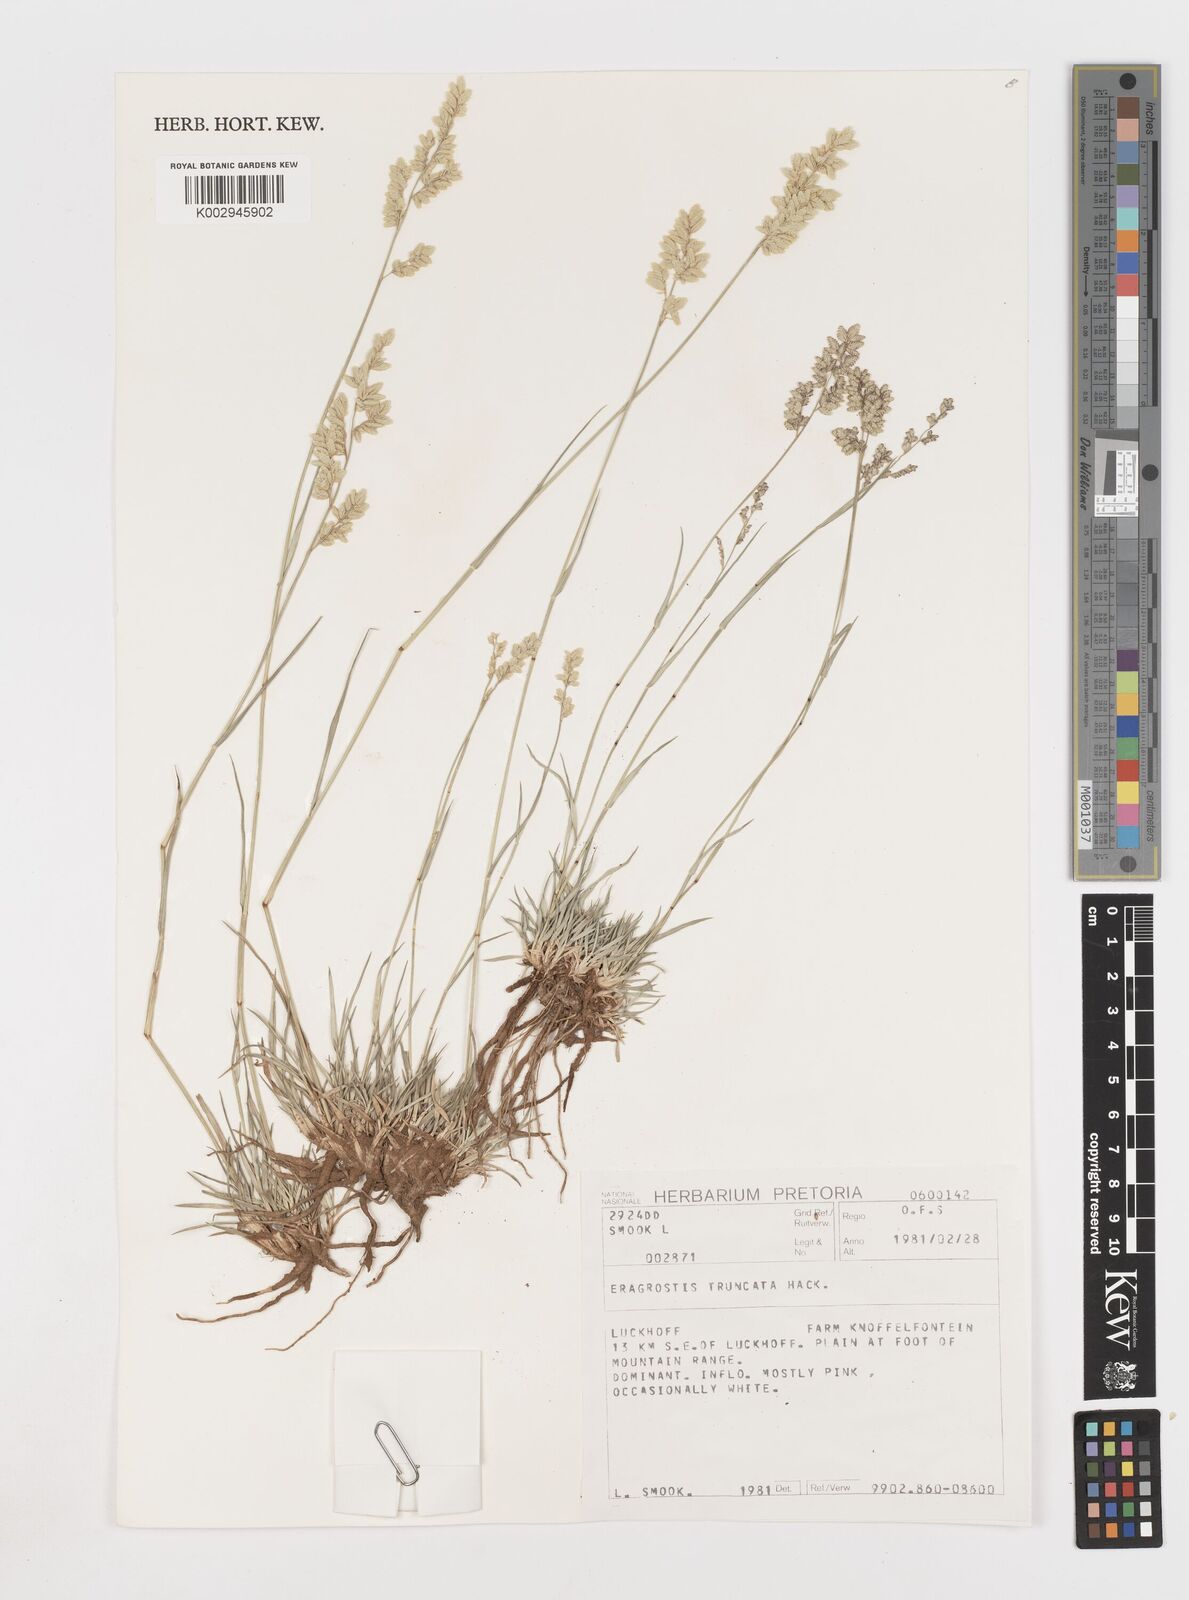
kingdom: Plantae
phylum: Tracheophyta
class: Liliopsida
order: Poales
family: Poaceae
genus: Eragrostis
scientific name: Eragrostis truncata
